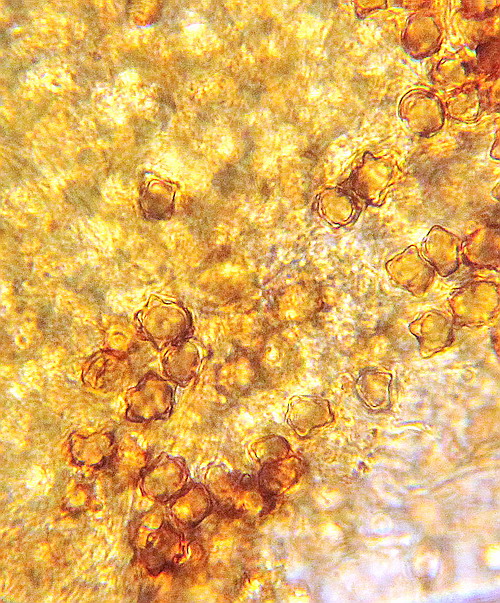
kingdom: Fungi
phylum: Basidiomycota
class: Agaricomycetes
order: Agaricales
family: Inocybaceae
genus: Inocybe
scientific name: Inocybe asterospora
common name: stjernesporet trævlhat
